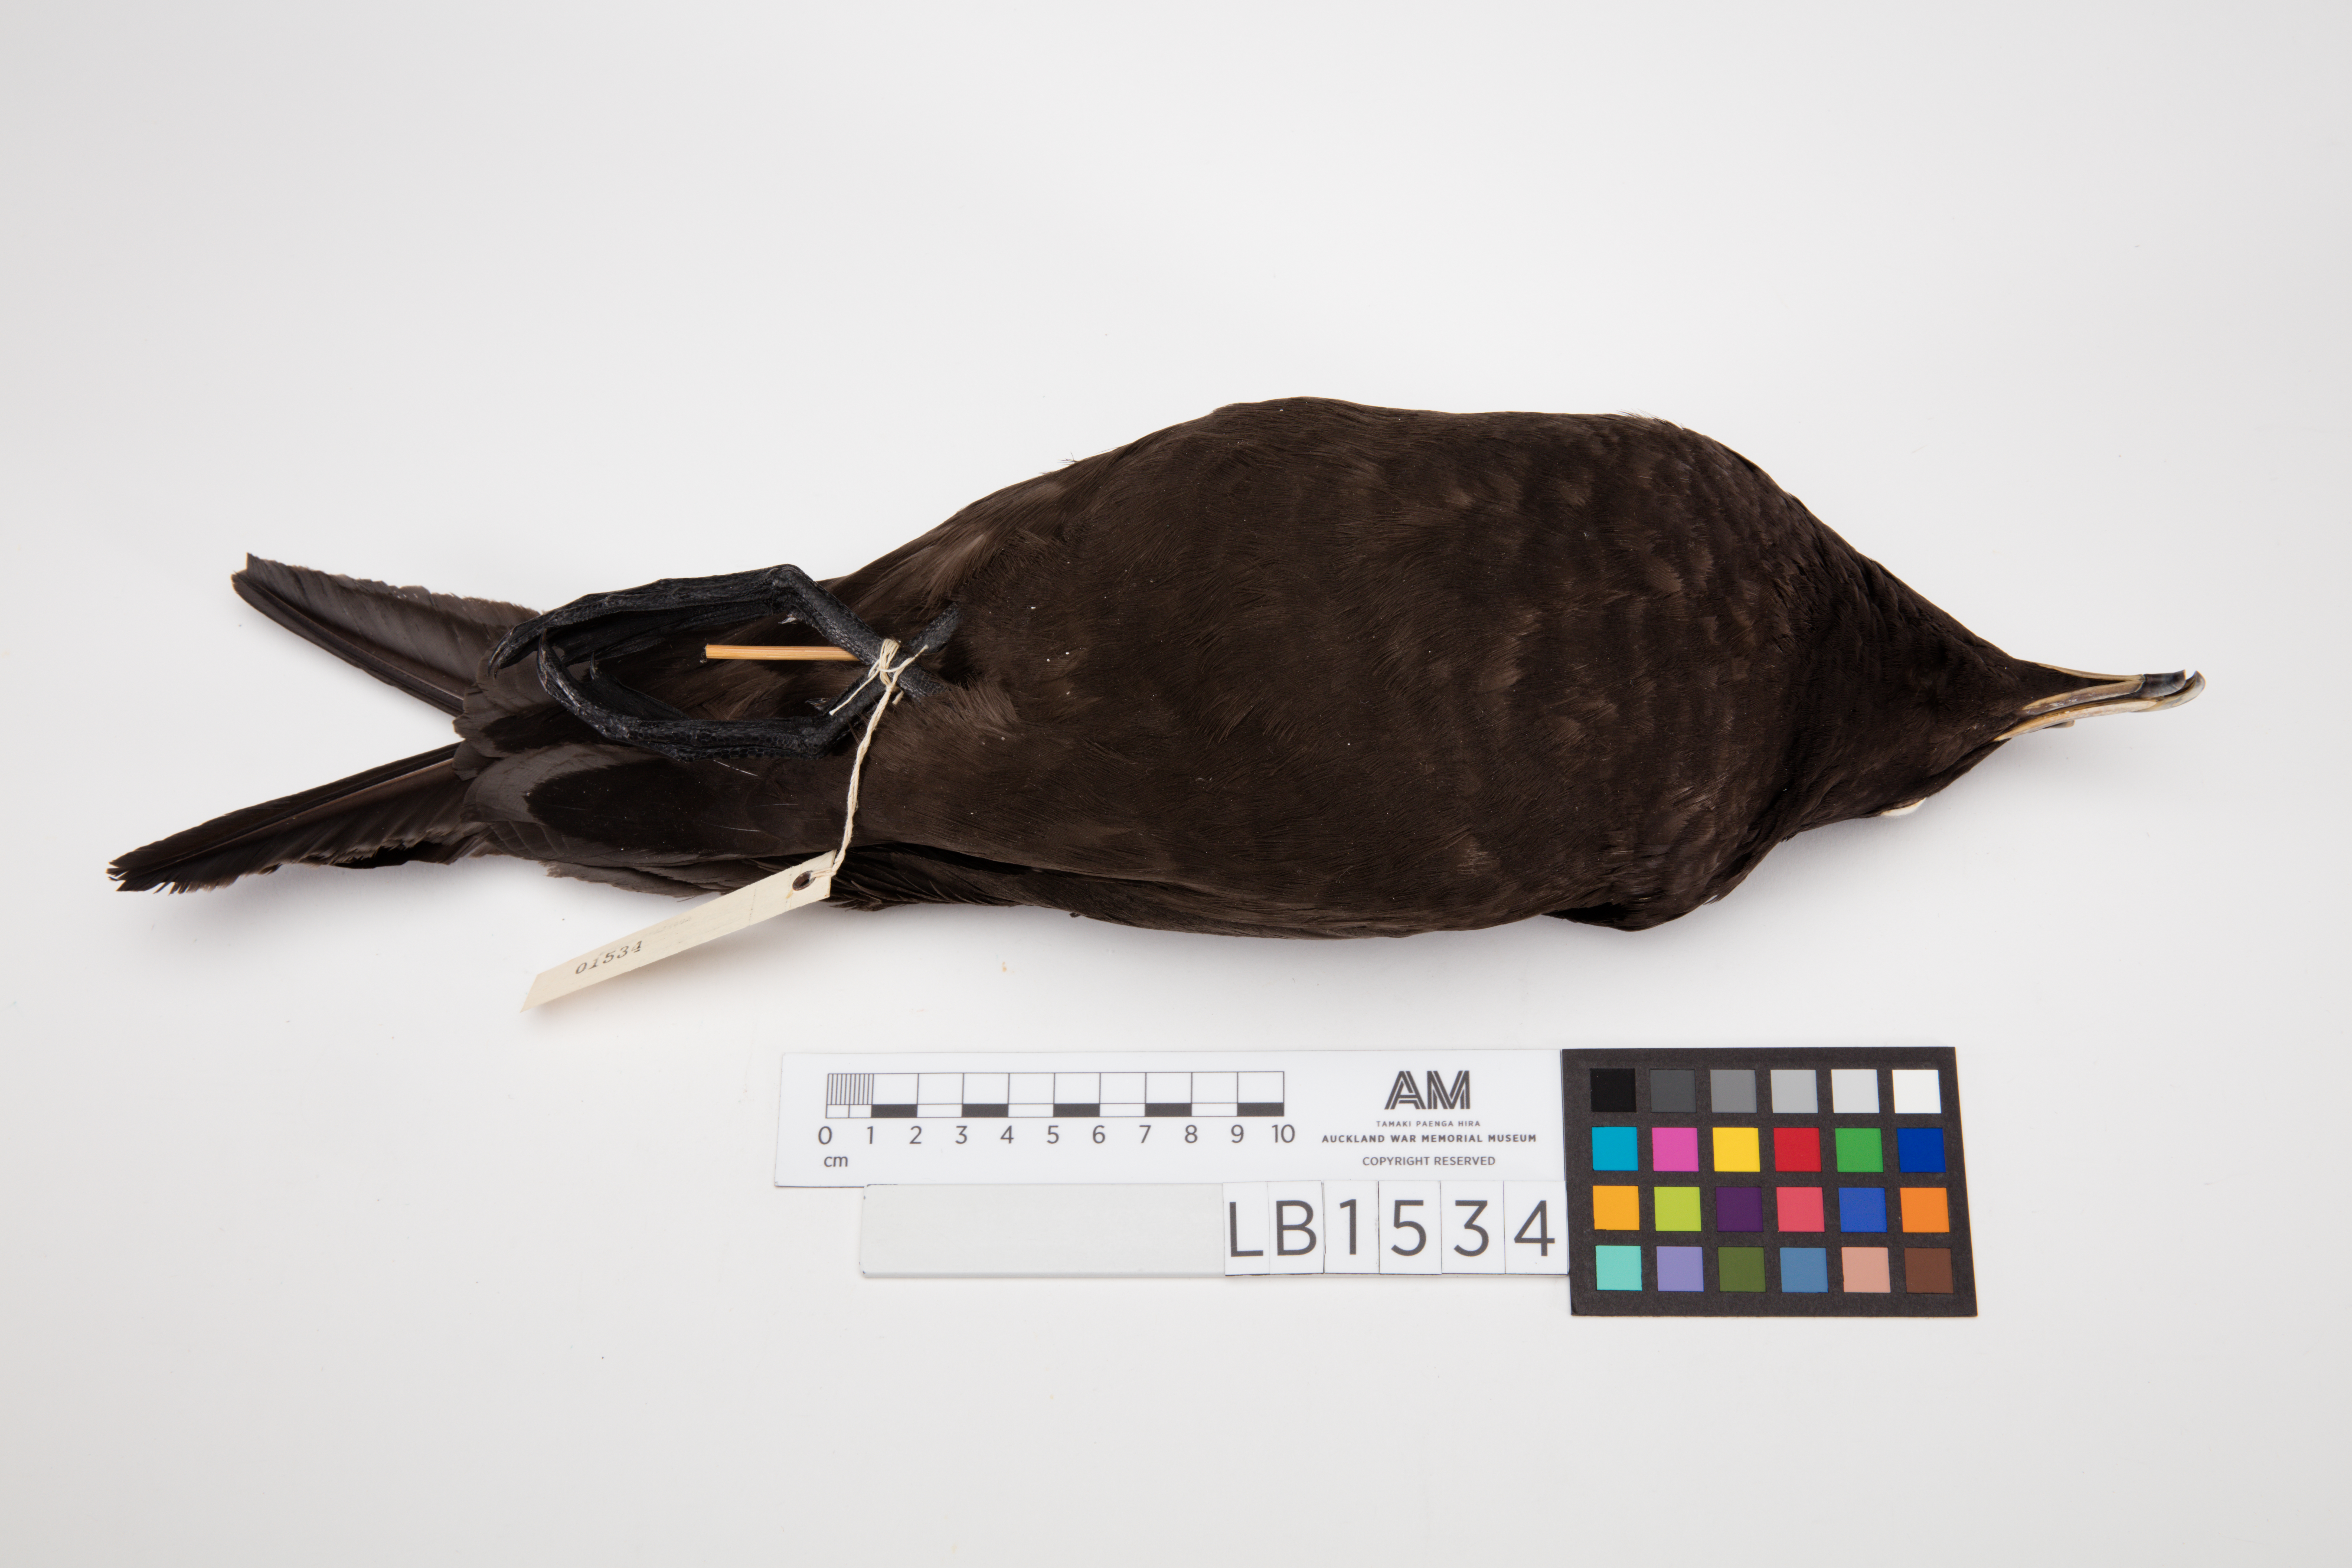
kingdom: Animalia
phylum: Chordata
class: Aves
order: Procellariiformes
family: Procellariidae
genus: Procellaria
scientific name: Procellaria parkinsoni
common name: Black petrel
